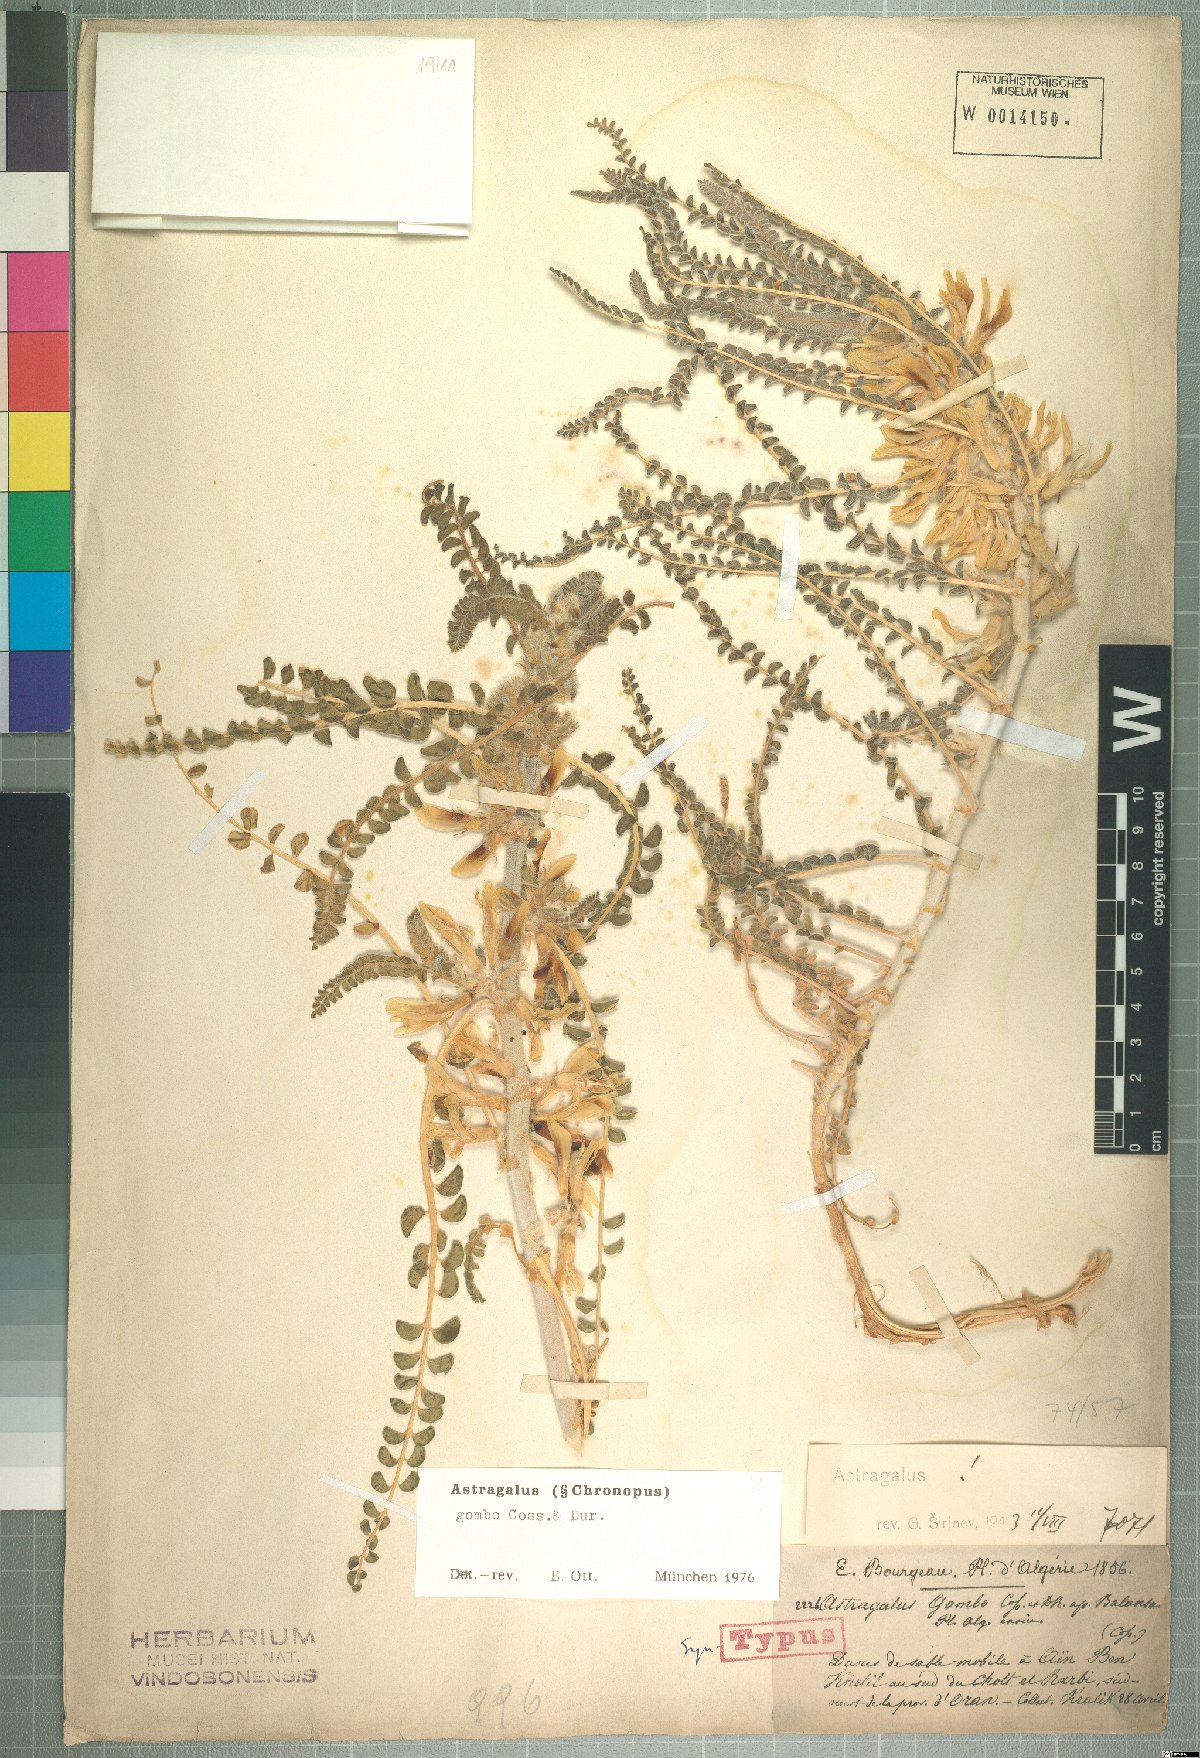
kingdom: Plantae
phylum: Tracheophyta
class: Magnoliopsida
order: Fabales
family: Fabaceae
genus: Astragalus
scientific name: Astragalus gombo
